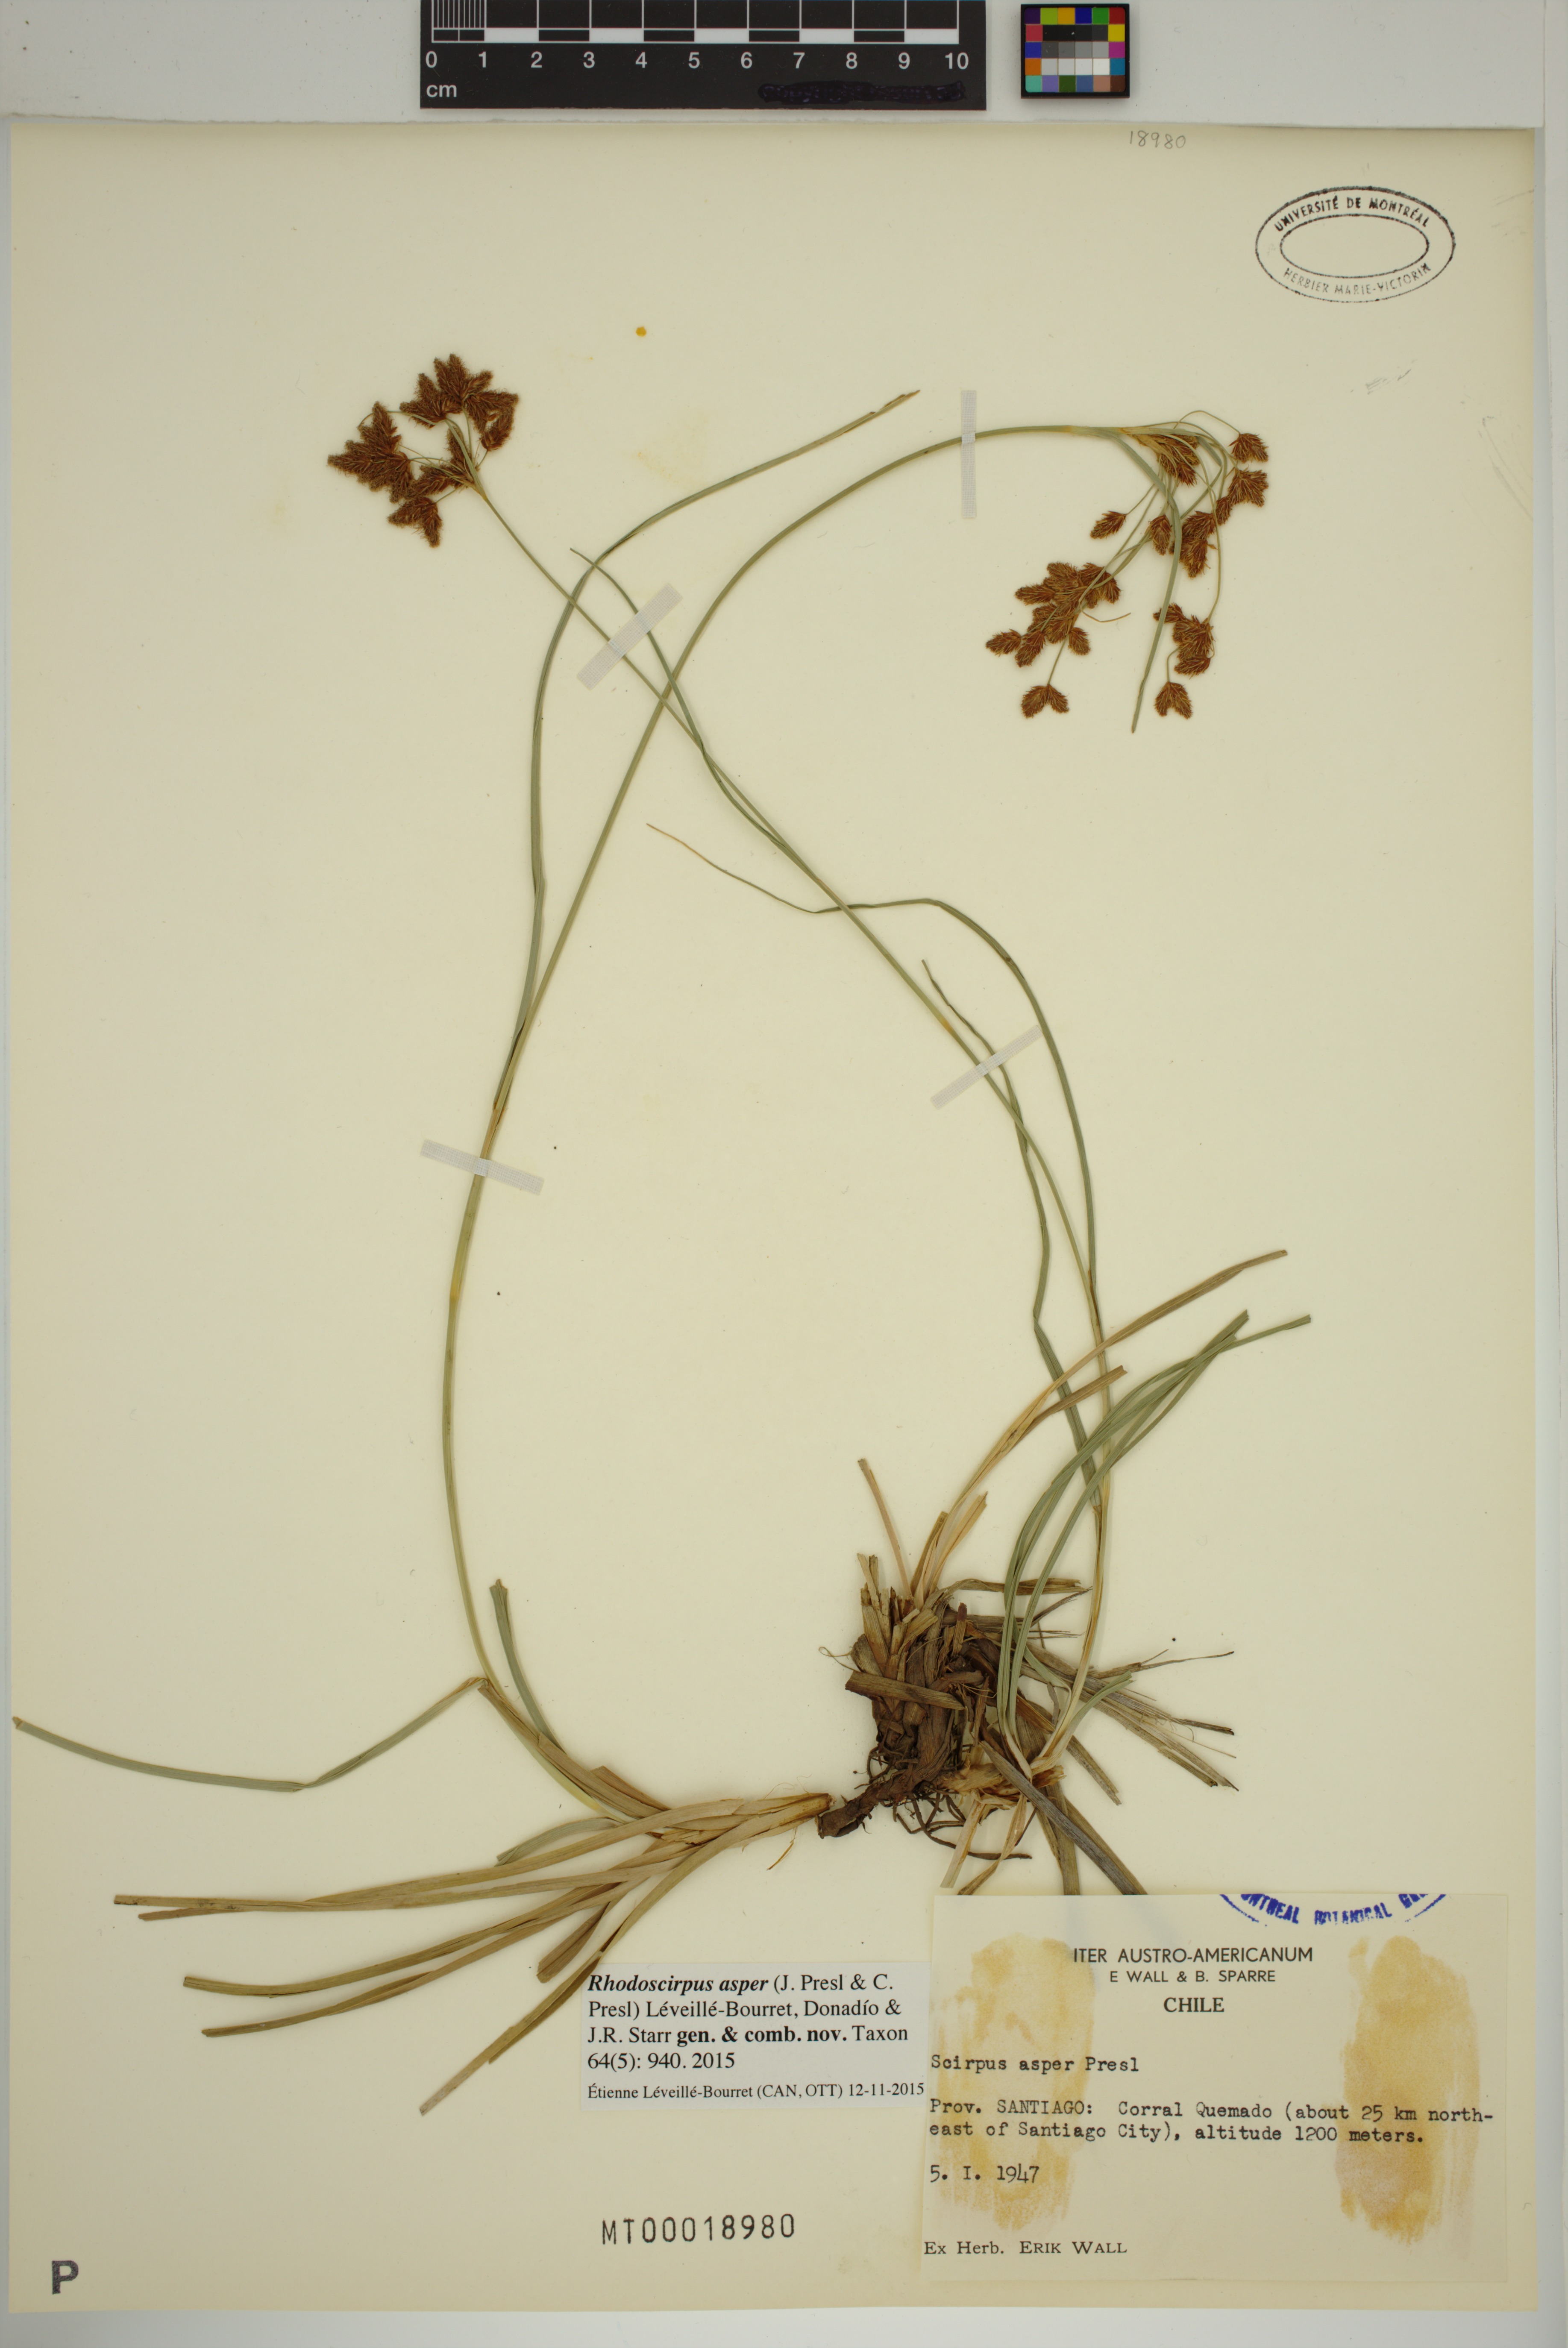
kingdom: Plantae
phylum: Tracheophyta
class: Liliopsida
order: Poales
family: Cyperaceae
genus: Rhodoscirpus
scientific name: Rhodoscirpus asper
